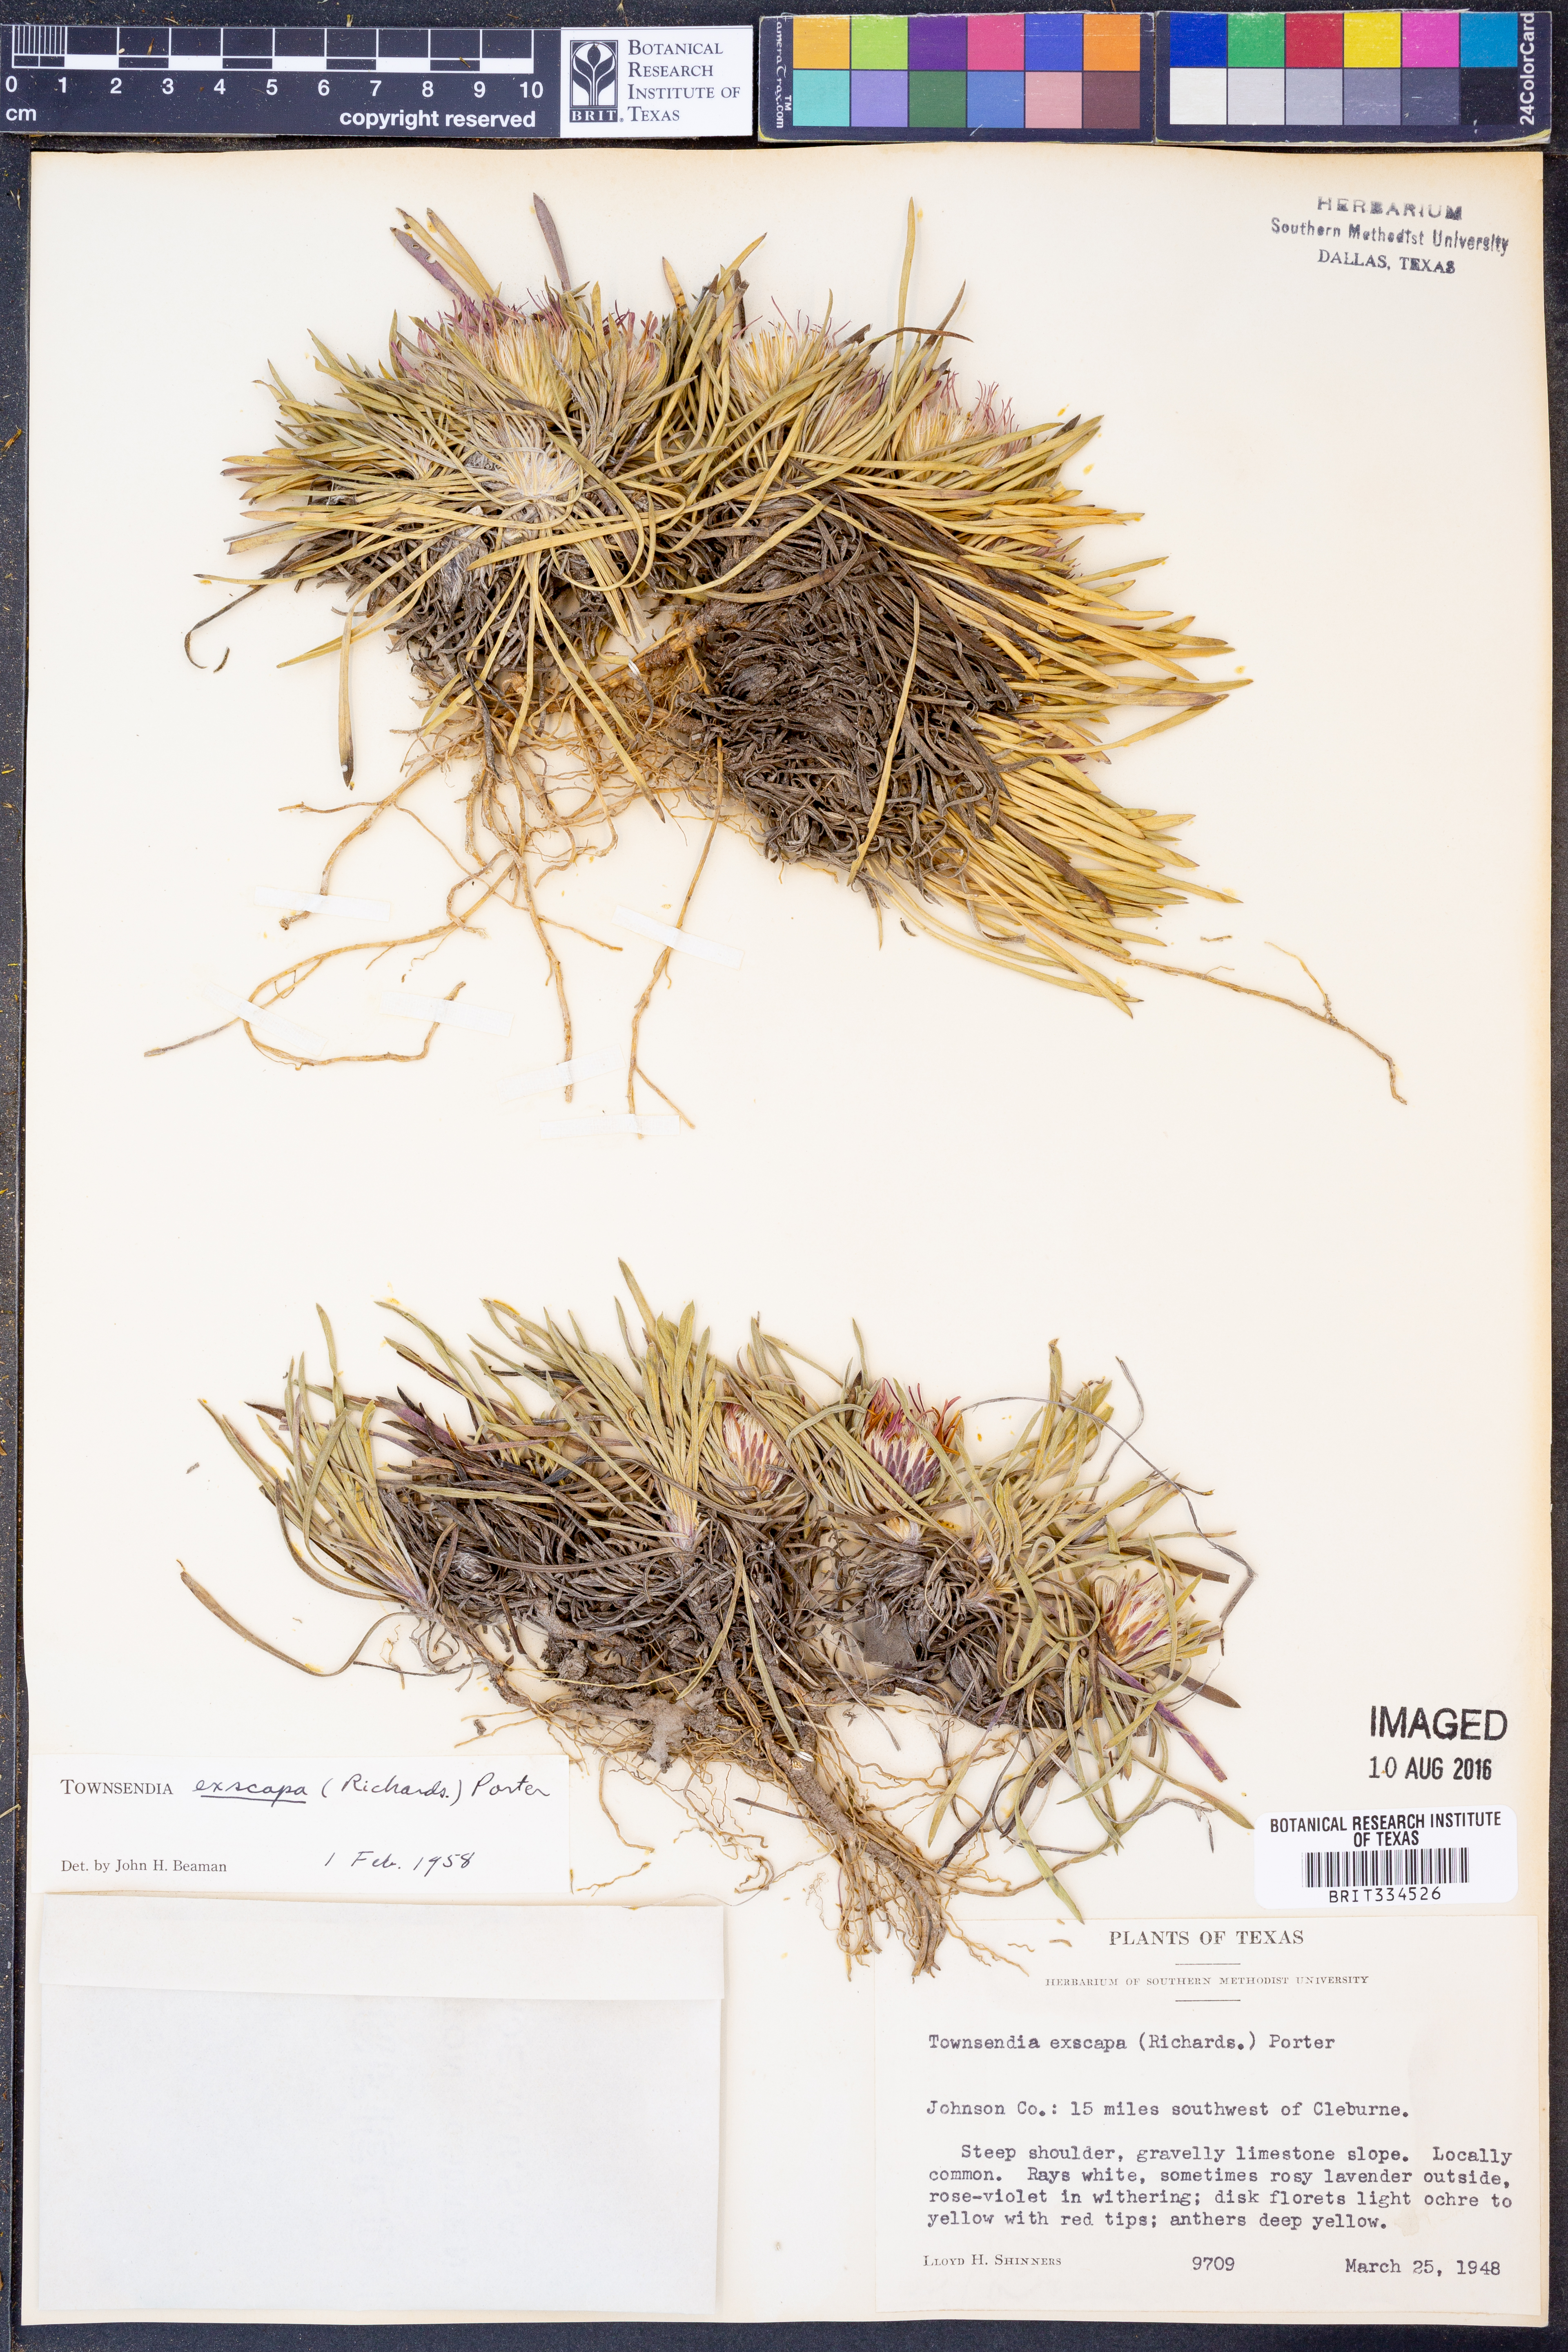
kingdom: Plantae
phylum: Tracheophyta
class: Magnoliopsida
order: Asterales
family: Asteraceae
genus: Townsendia
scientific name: Townsendia exscapa
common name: Dwarf townsendia
